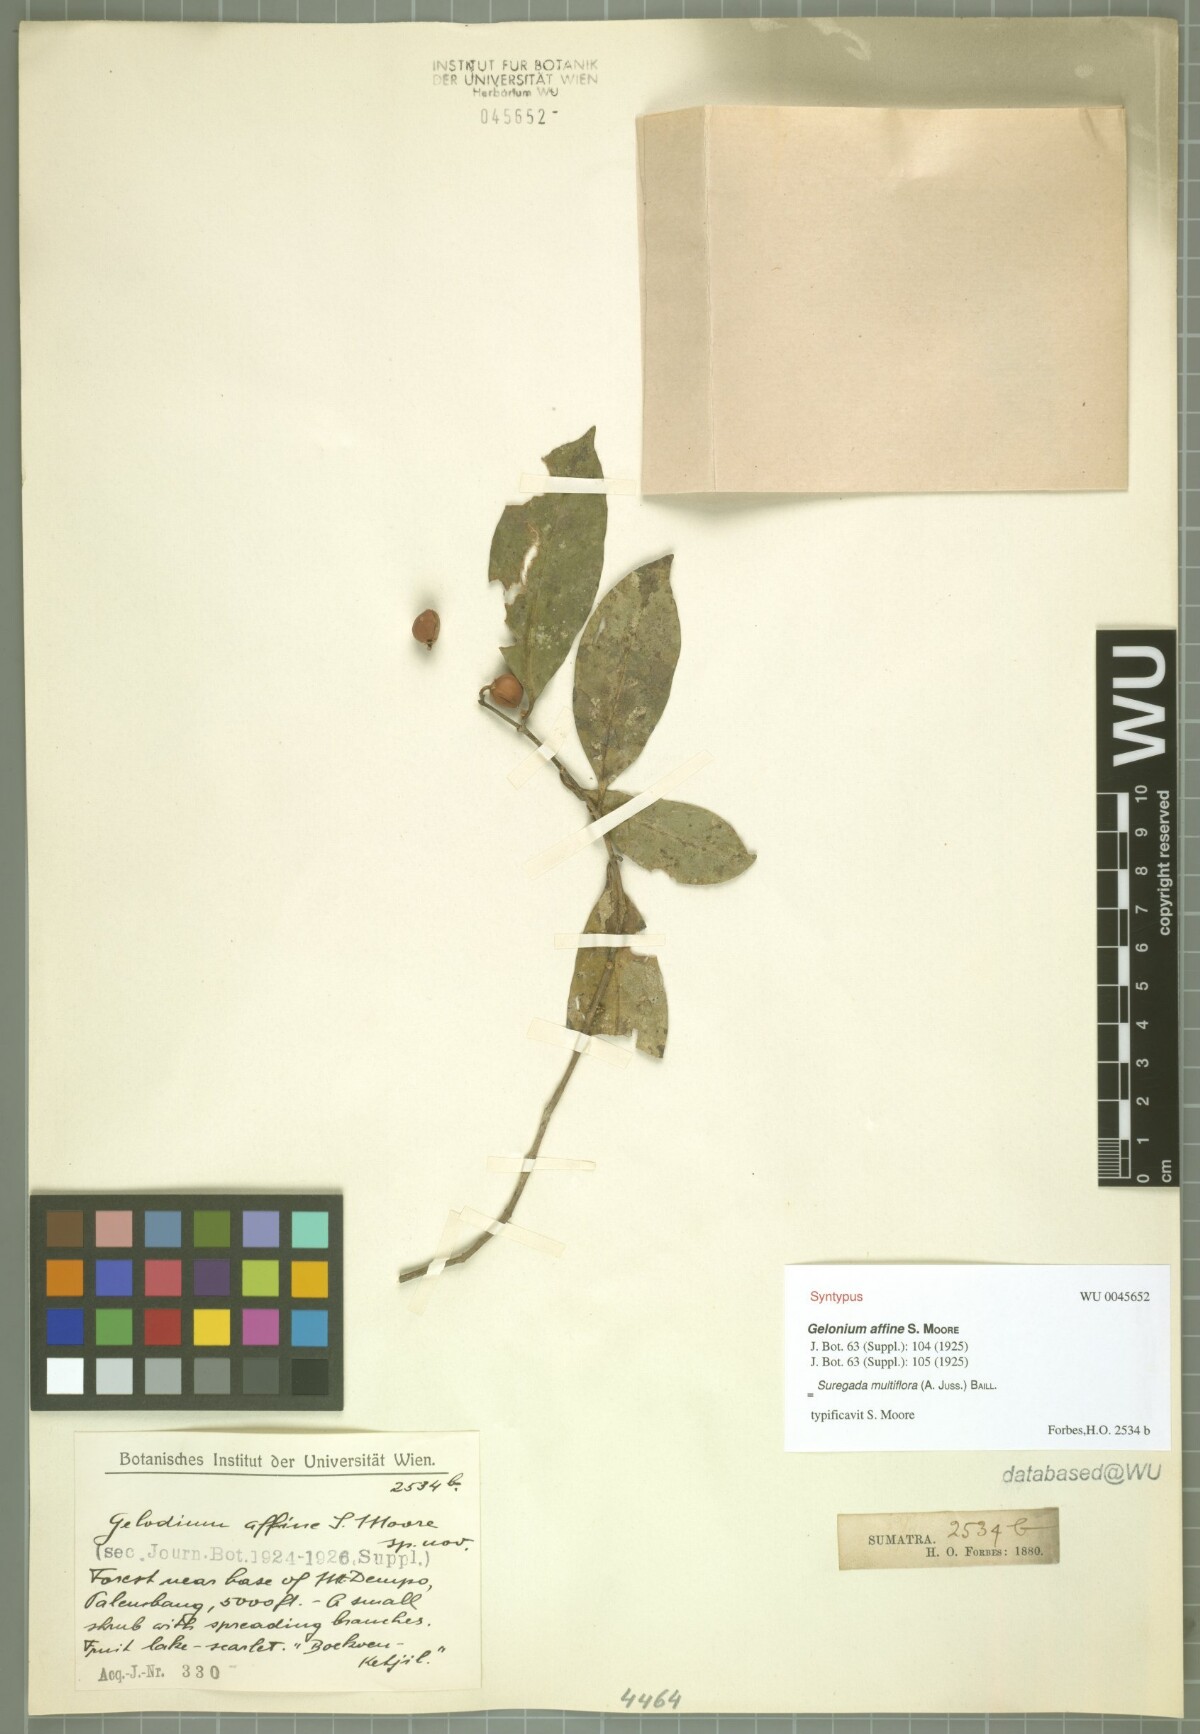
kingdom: Plantae
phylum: Tracheophyta
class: Magnoliopsida
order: Malpighiales
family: Euphorbiaceae
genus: Suregada
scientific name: Suregada multiflora
